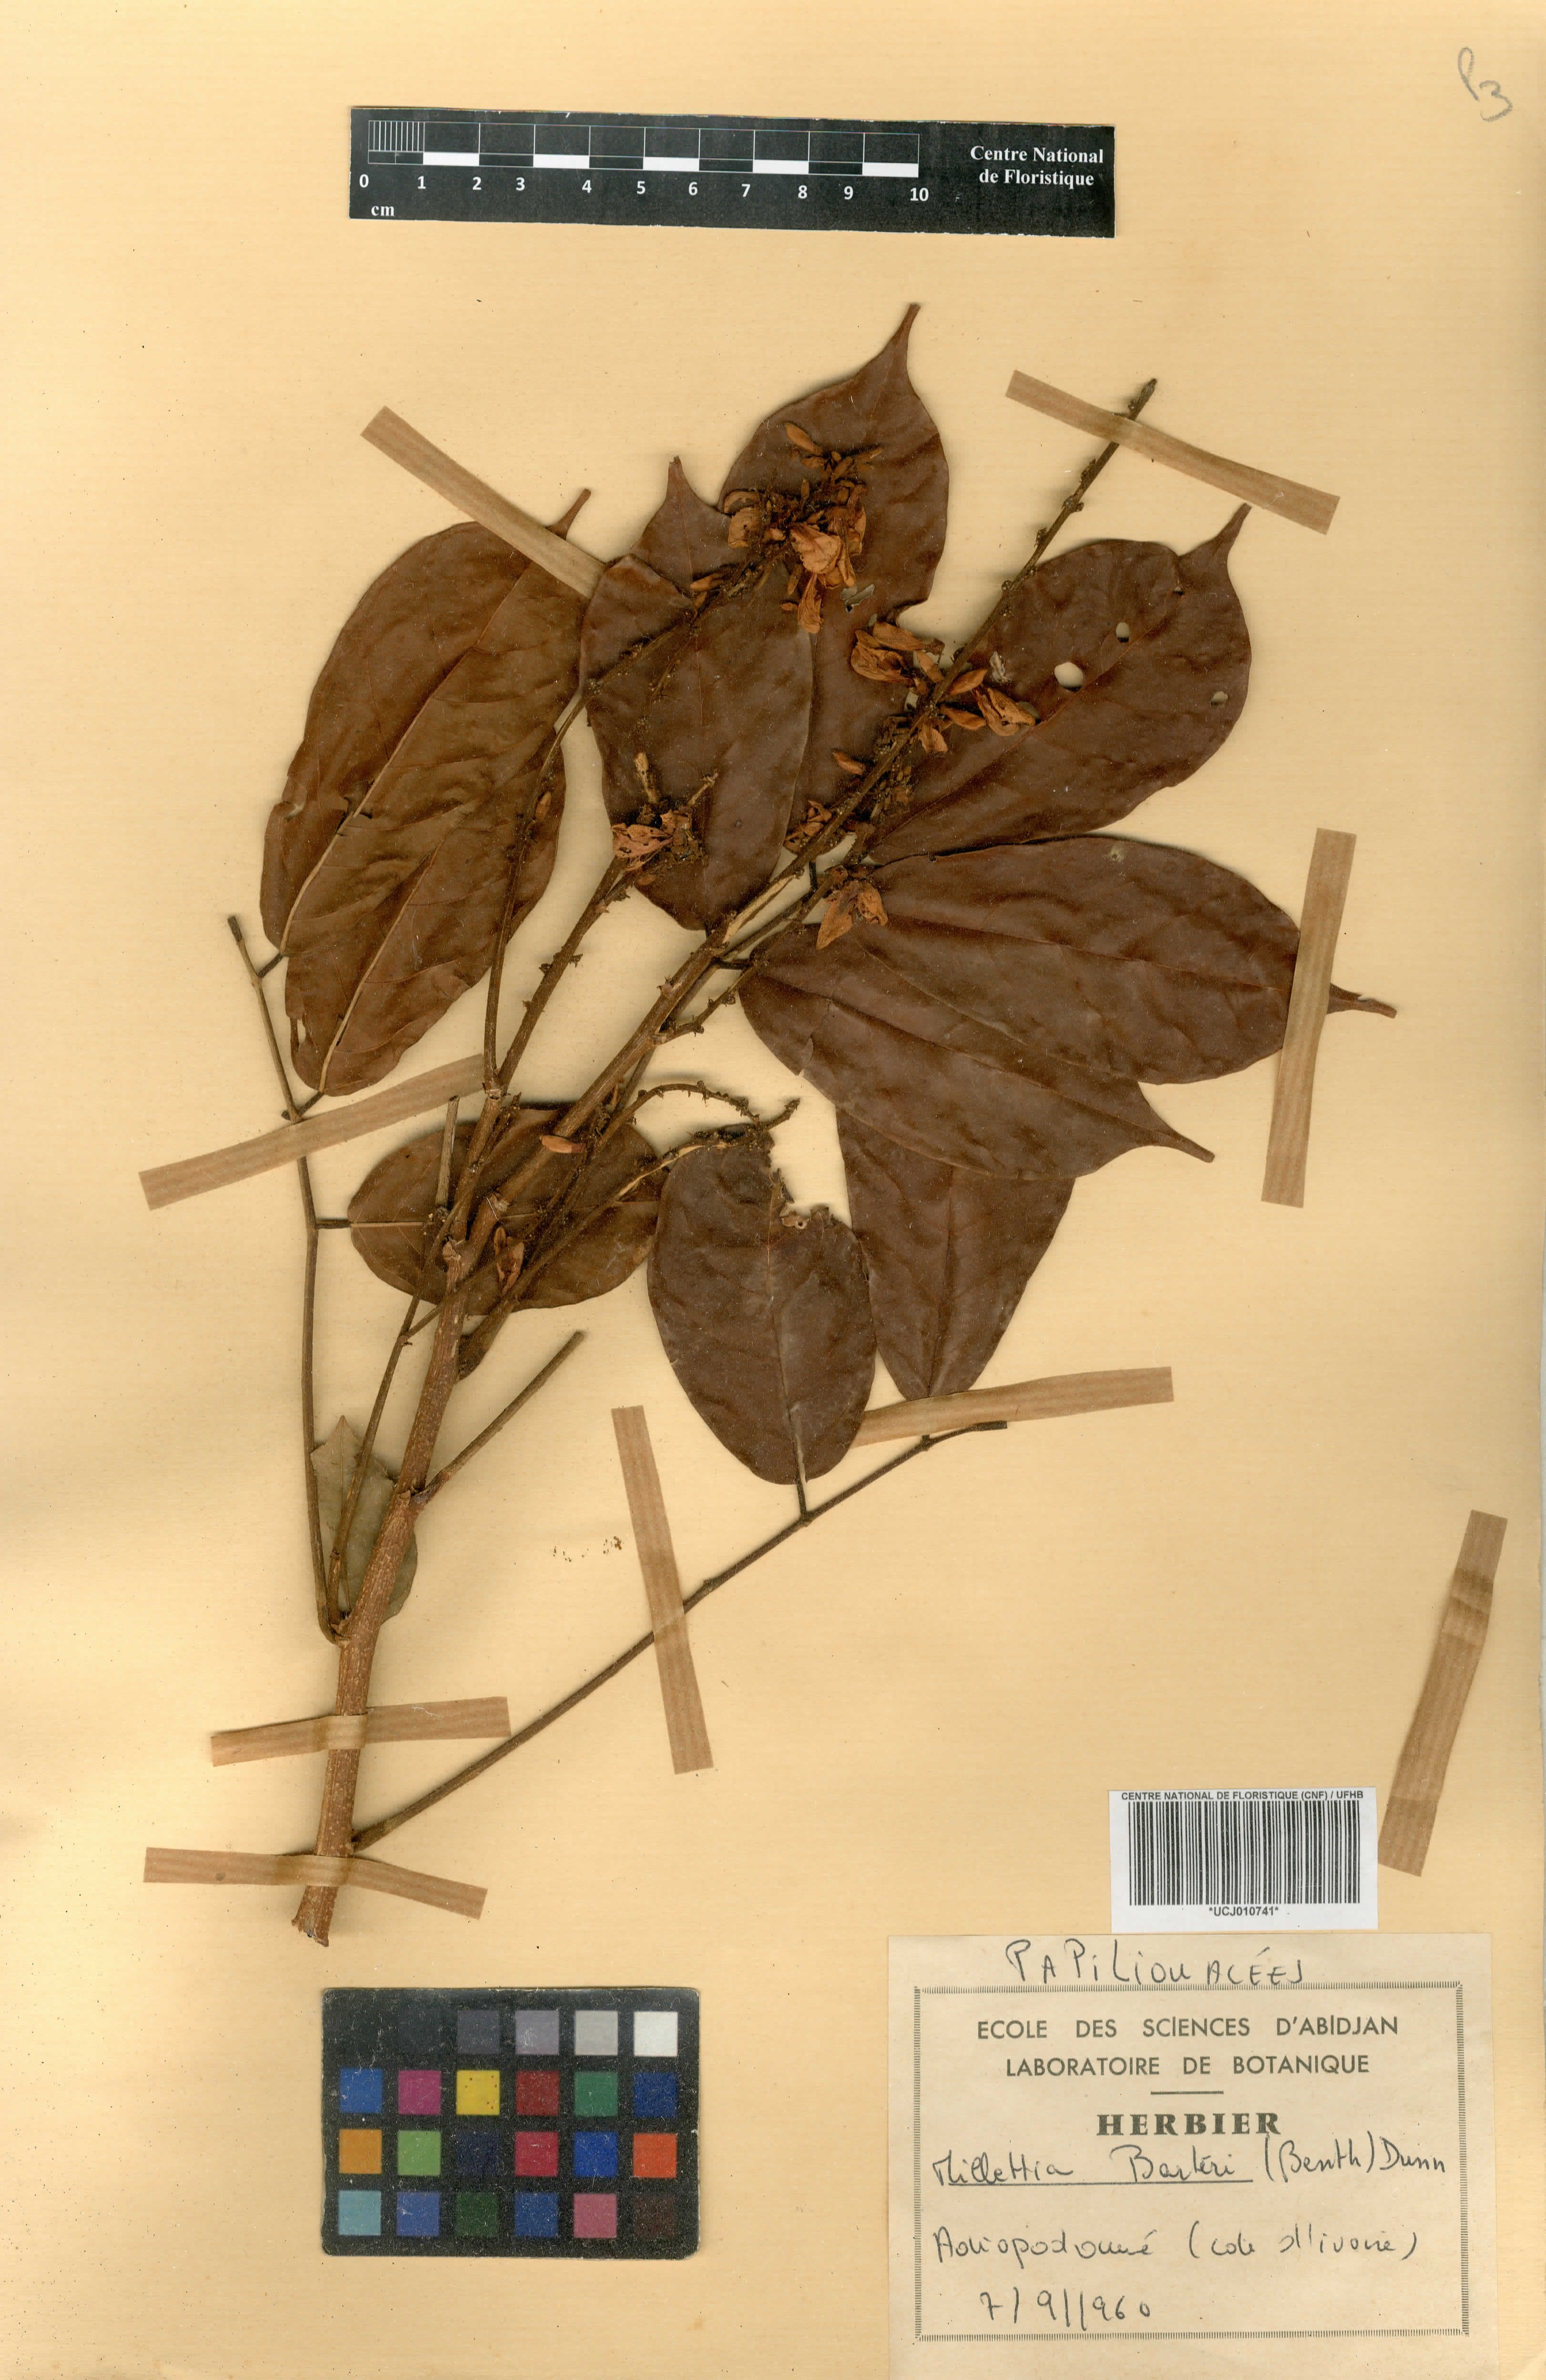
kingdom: Plantae
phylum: Tracheophyta
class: Magnoliopsida
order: Fabales
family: Fabaceae
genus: Millettia
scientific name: Millettia barteri
